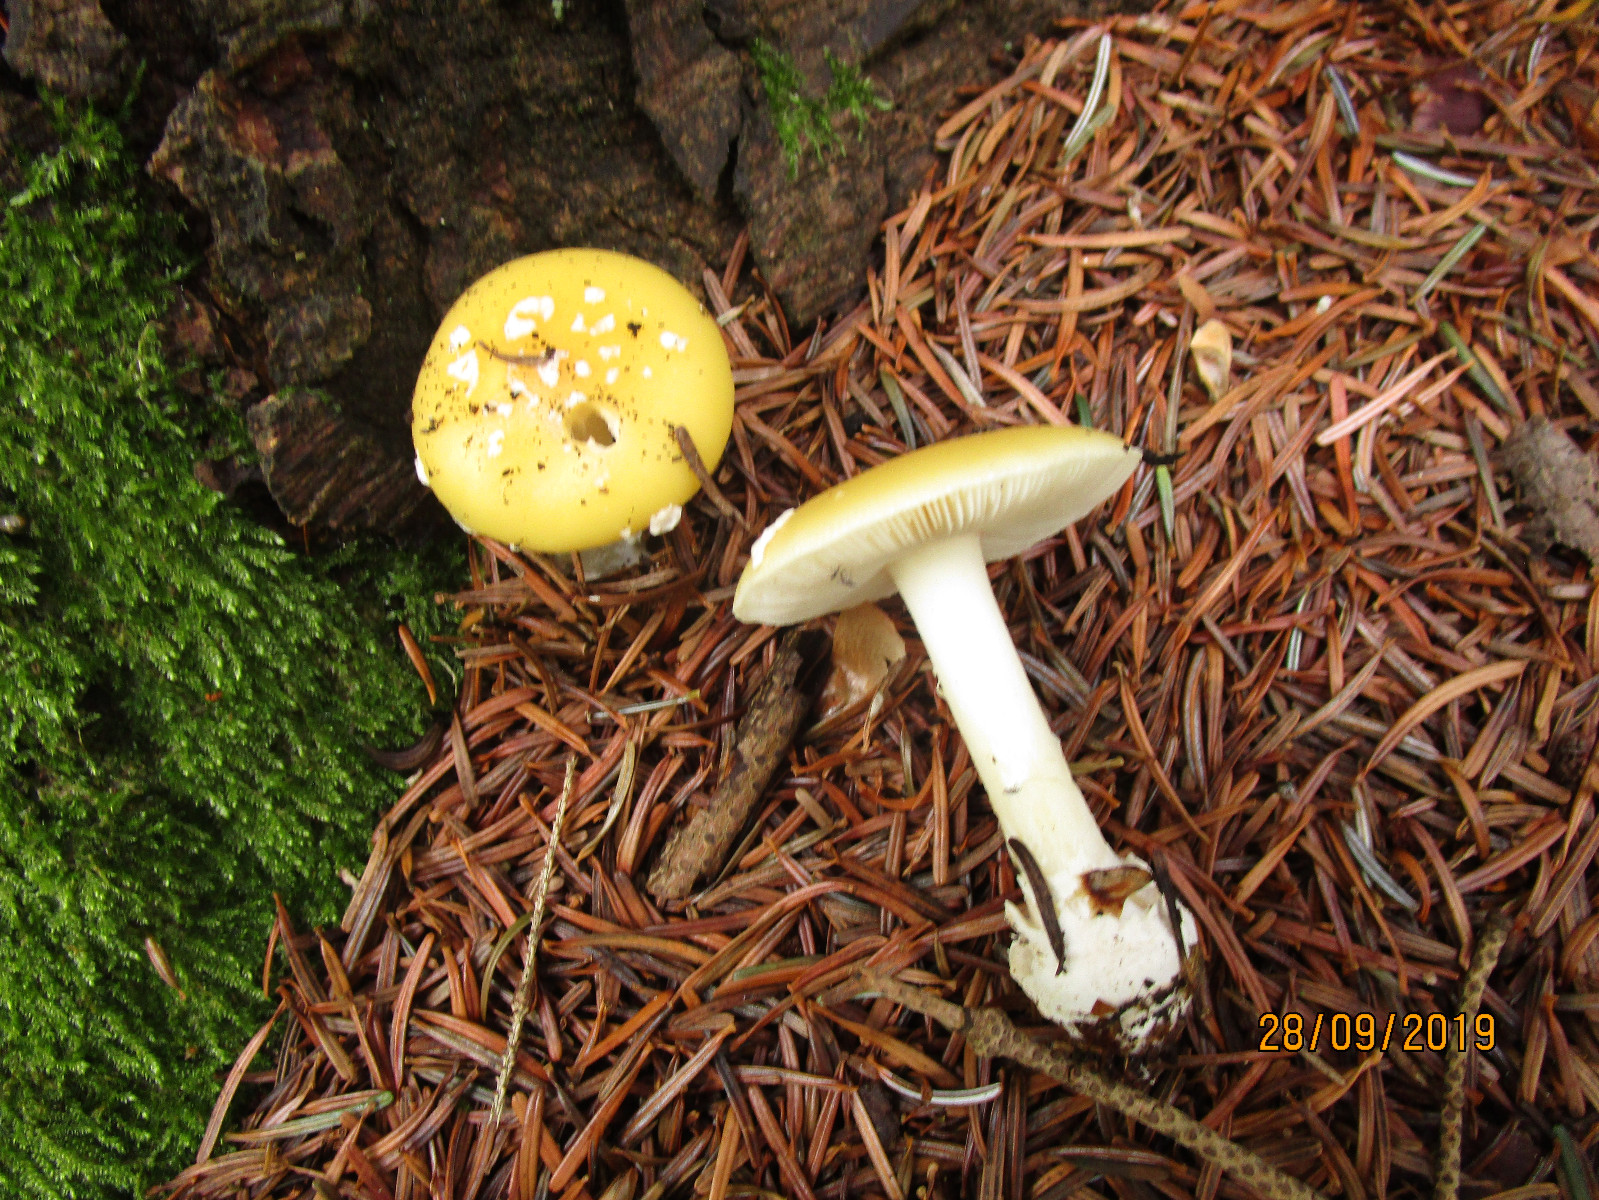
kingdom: Fungi
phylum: Basidiomycota
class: Agaricomycetes
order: Agaricales
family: Amanitaceae
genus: Amanita
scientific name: Amanita gemmata
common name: okkergul fluesvamp
